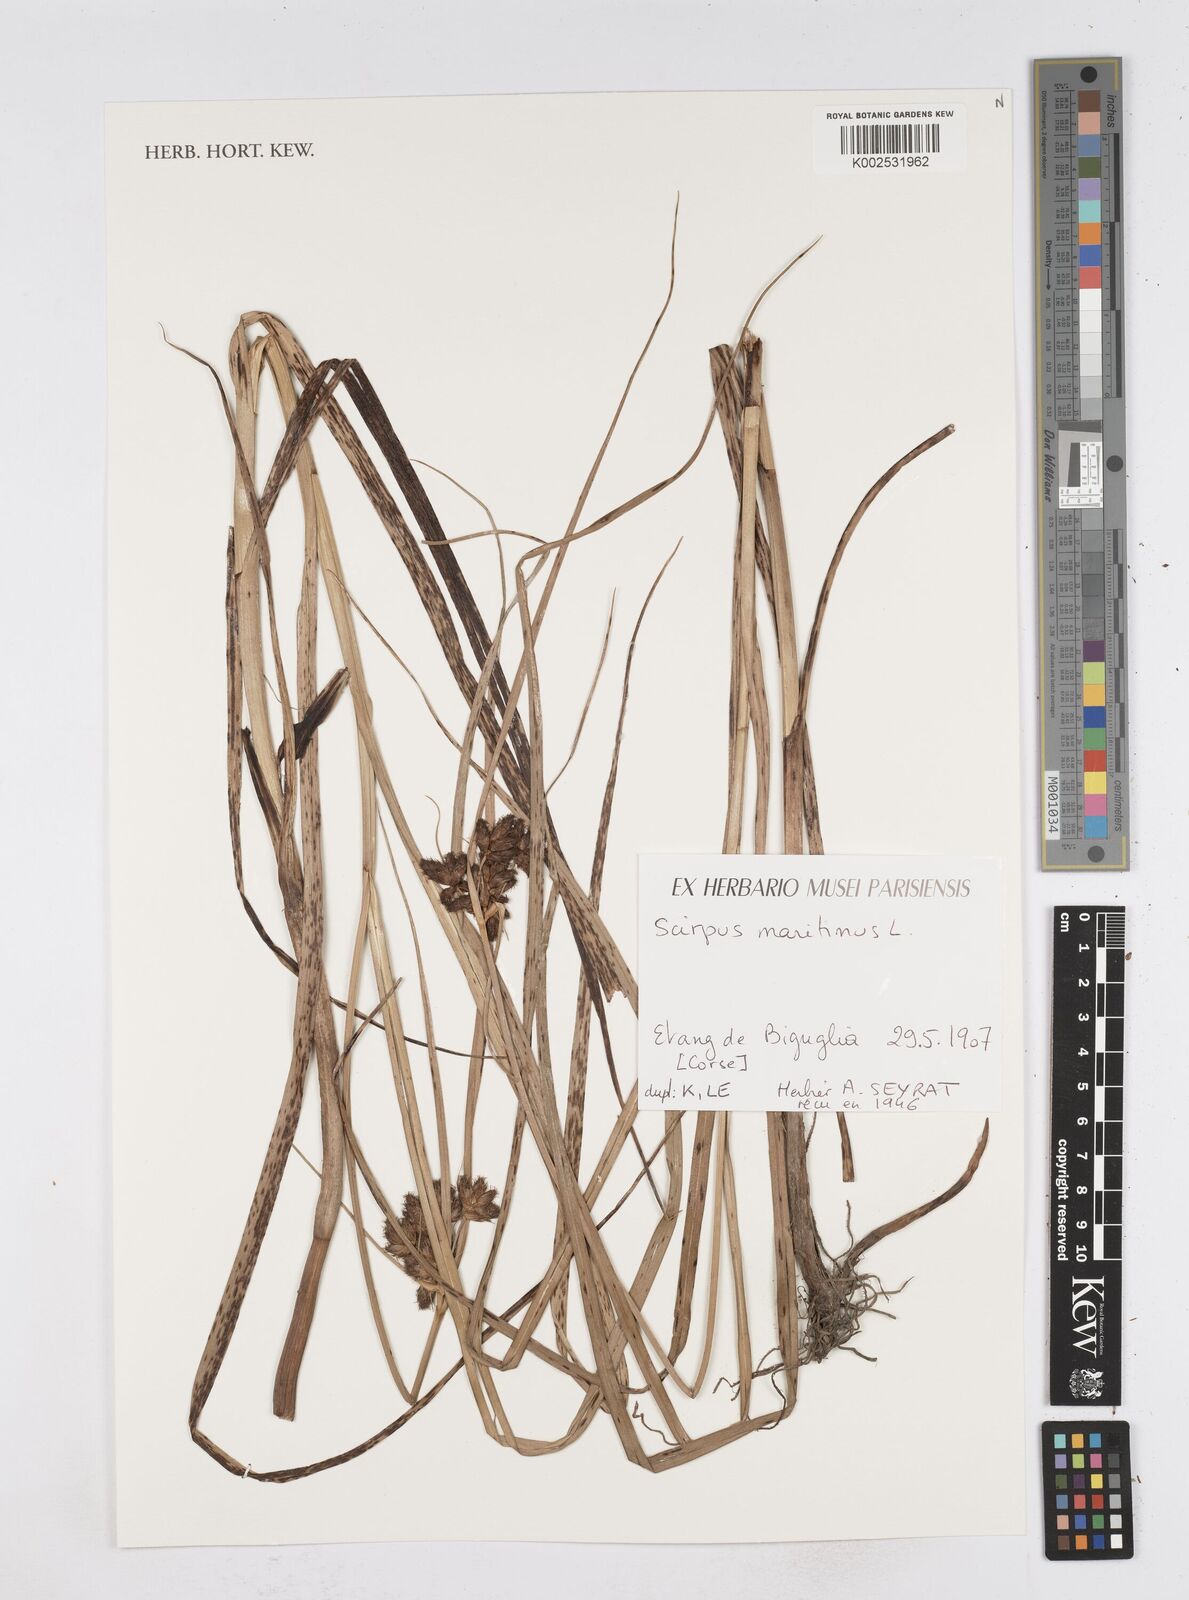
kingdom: Plantae
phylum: Tracheophyta
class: Liliopsida
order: Poales
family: Cyperaceae
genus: Bolboschoenus
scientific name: Bolboschoenus maritimus
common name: Sea club-rush
